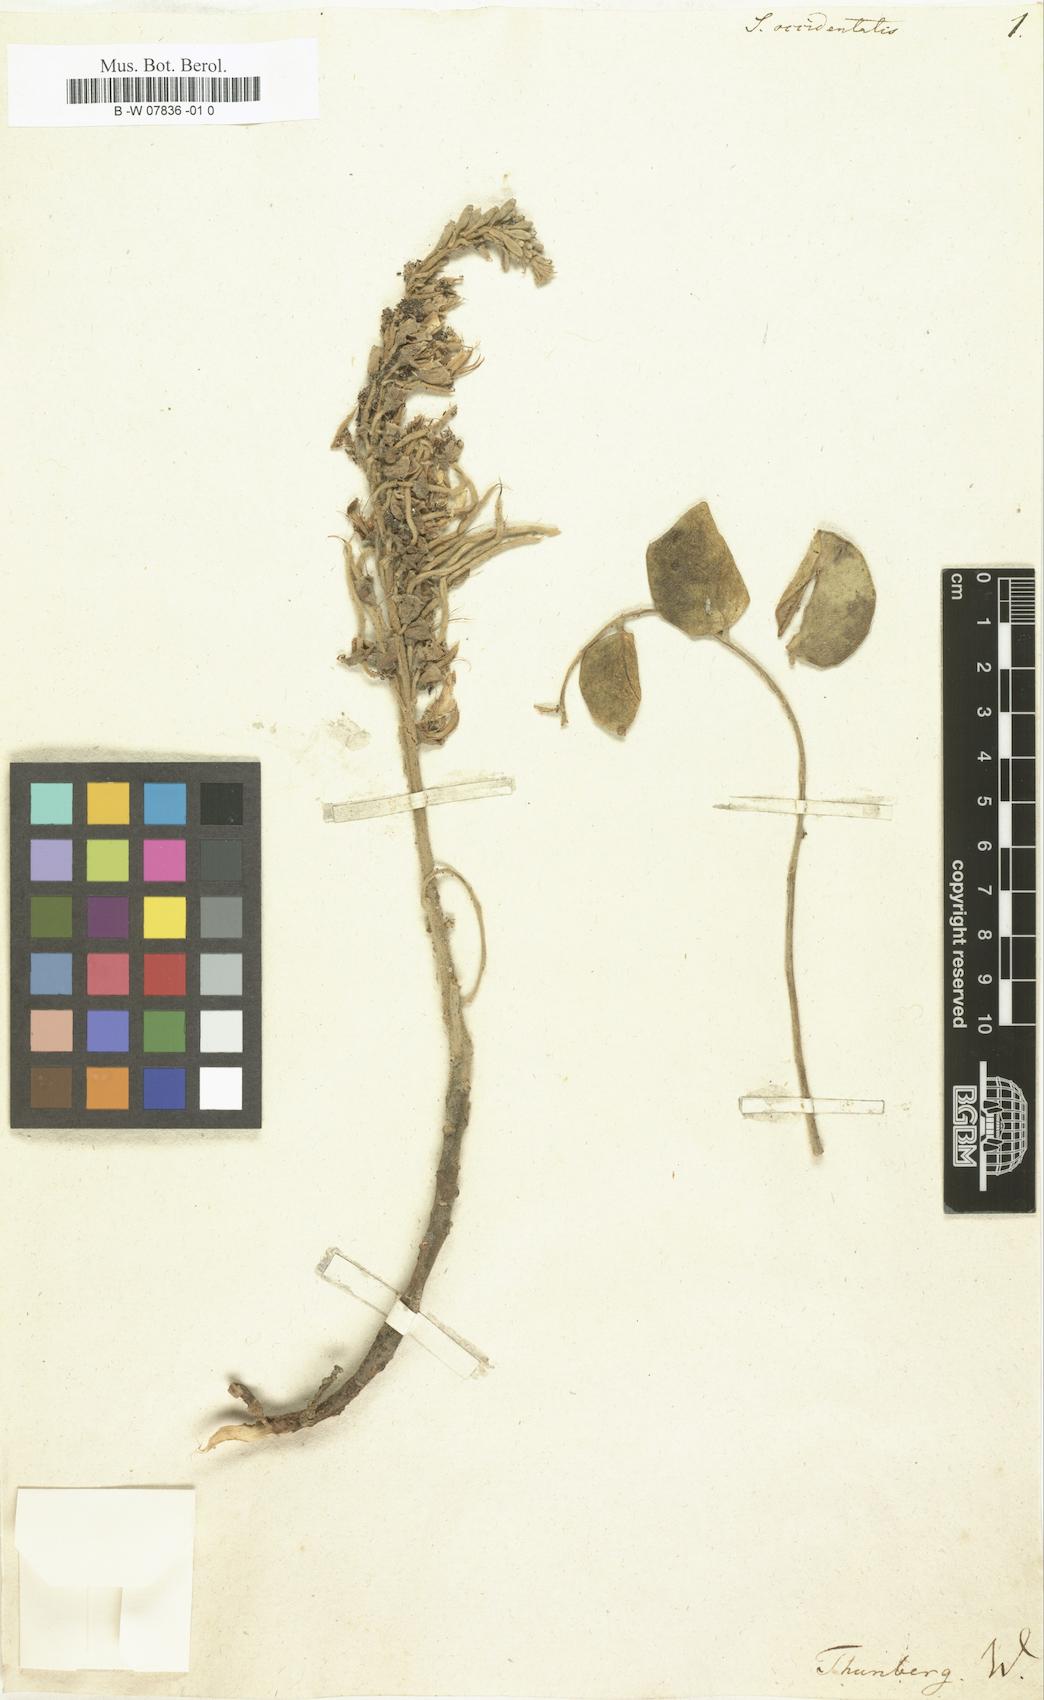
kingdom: Plantae
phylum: Tracheophyta
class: Magnoliopsida
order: Fabales
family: Fabaceae
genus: Sophora
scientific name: Sophora occidentalis
